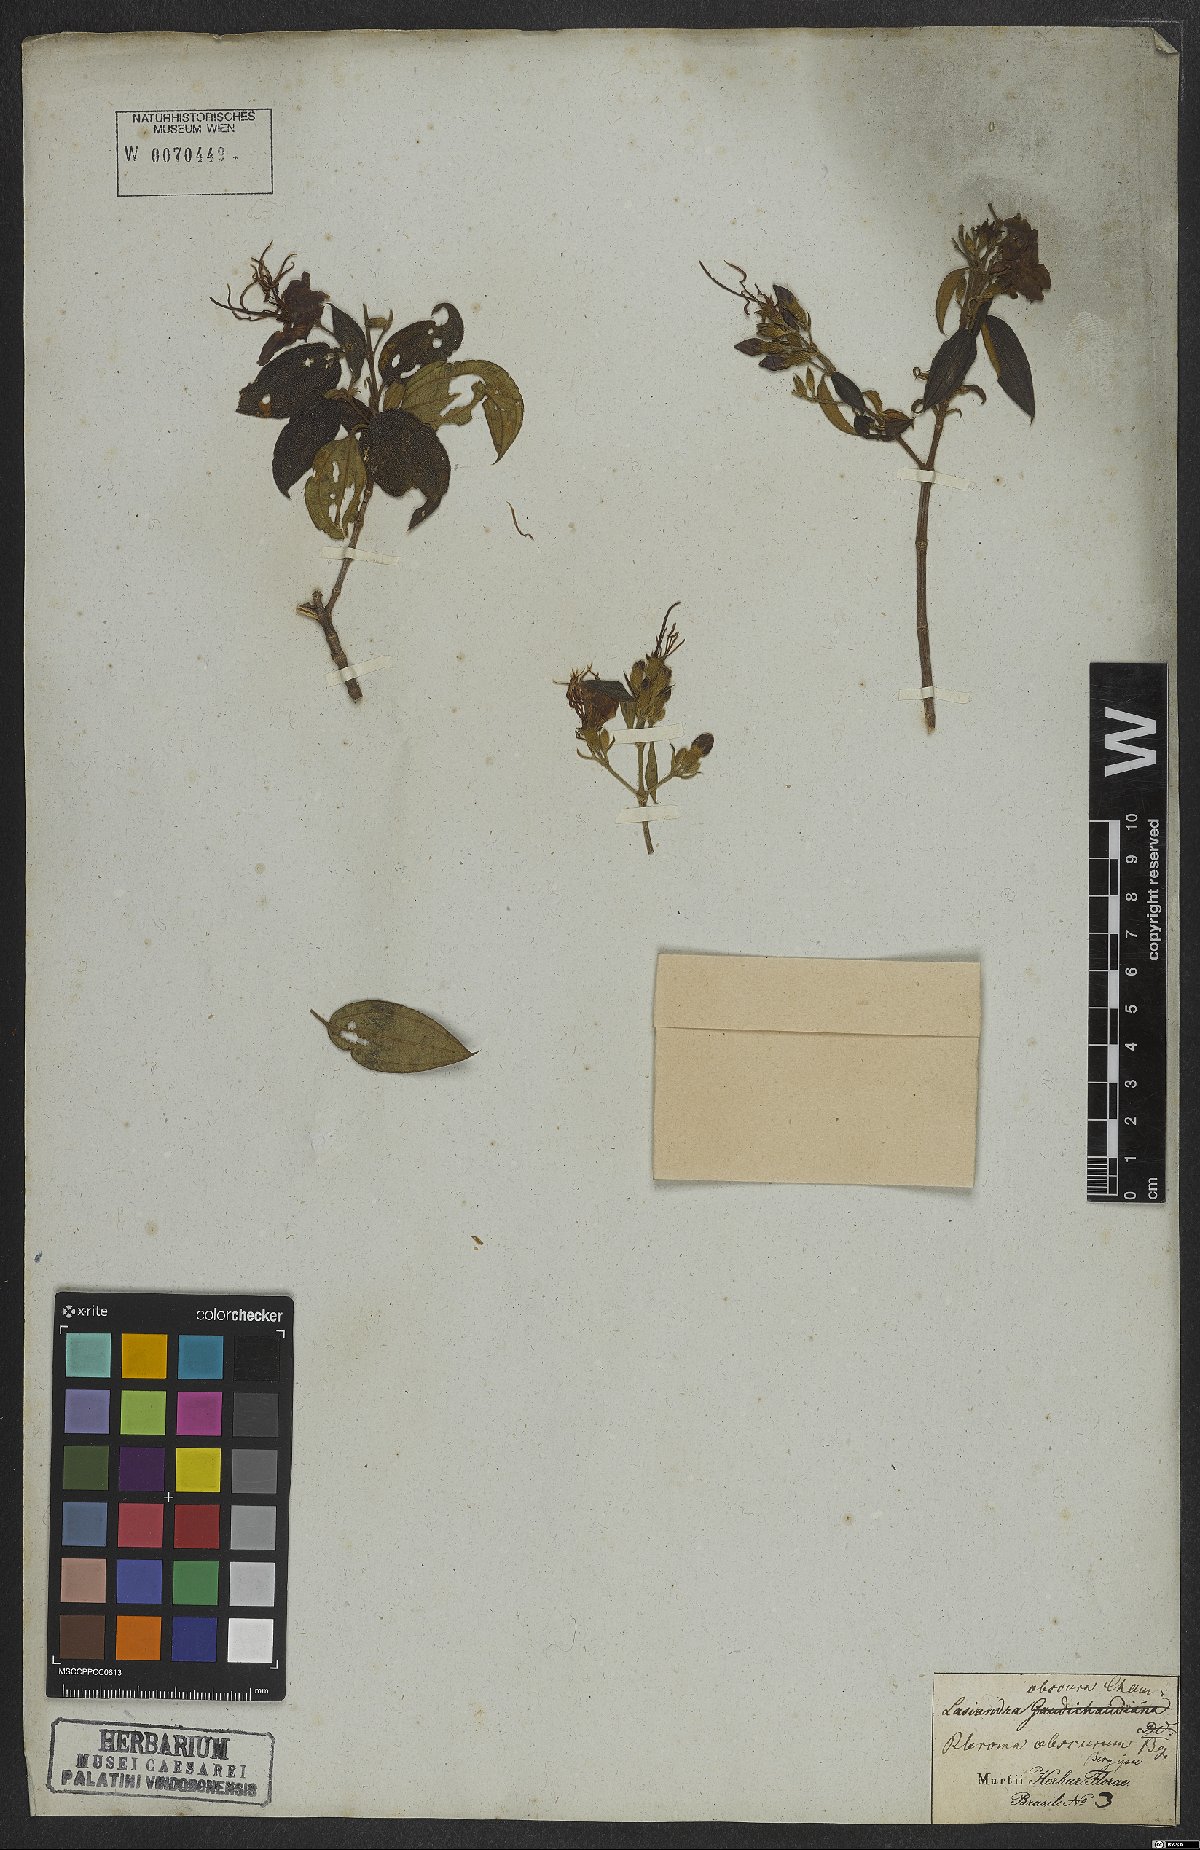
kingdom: Plantae
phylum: Tracheophyta
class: Magnoliopsida
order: Myrtales
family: Melastomataceae
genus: Pleroma
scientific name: Pleroma vimineum
